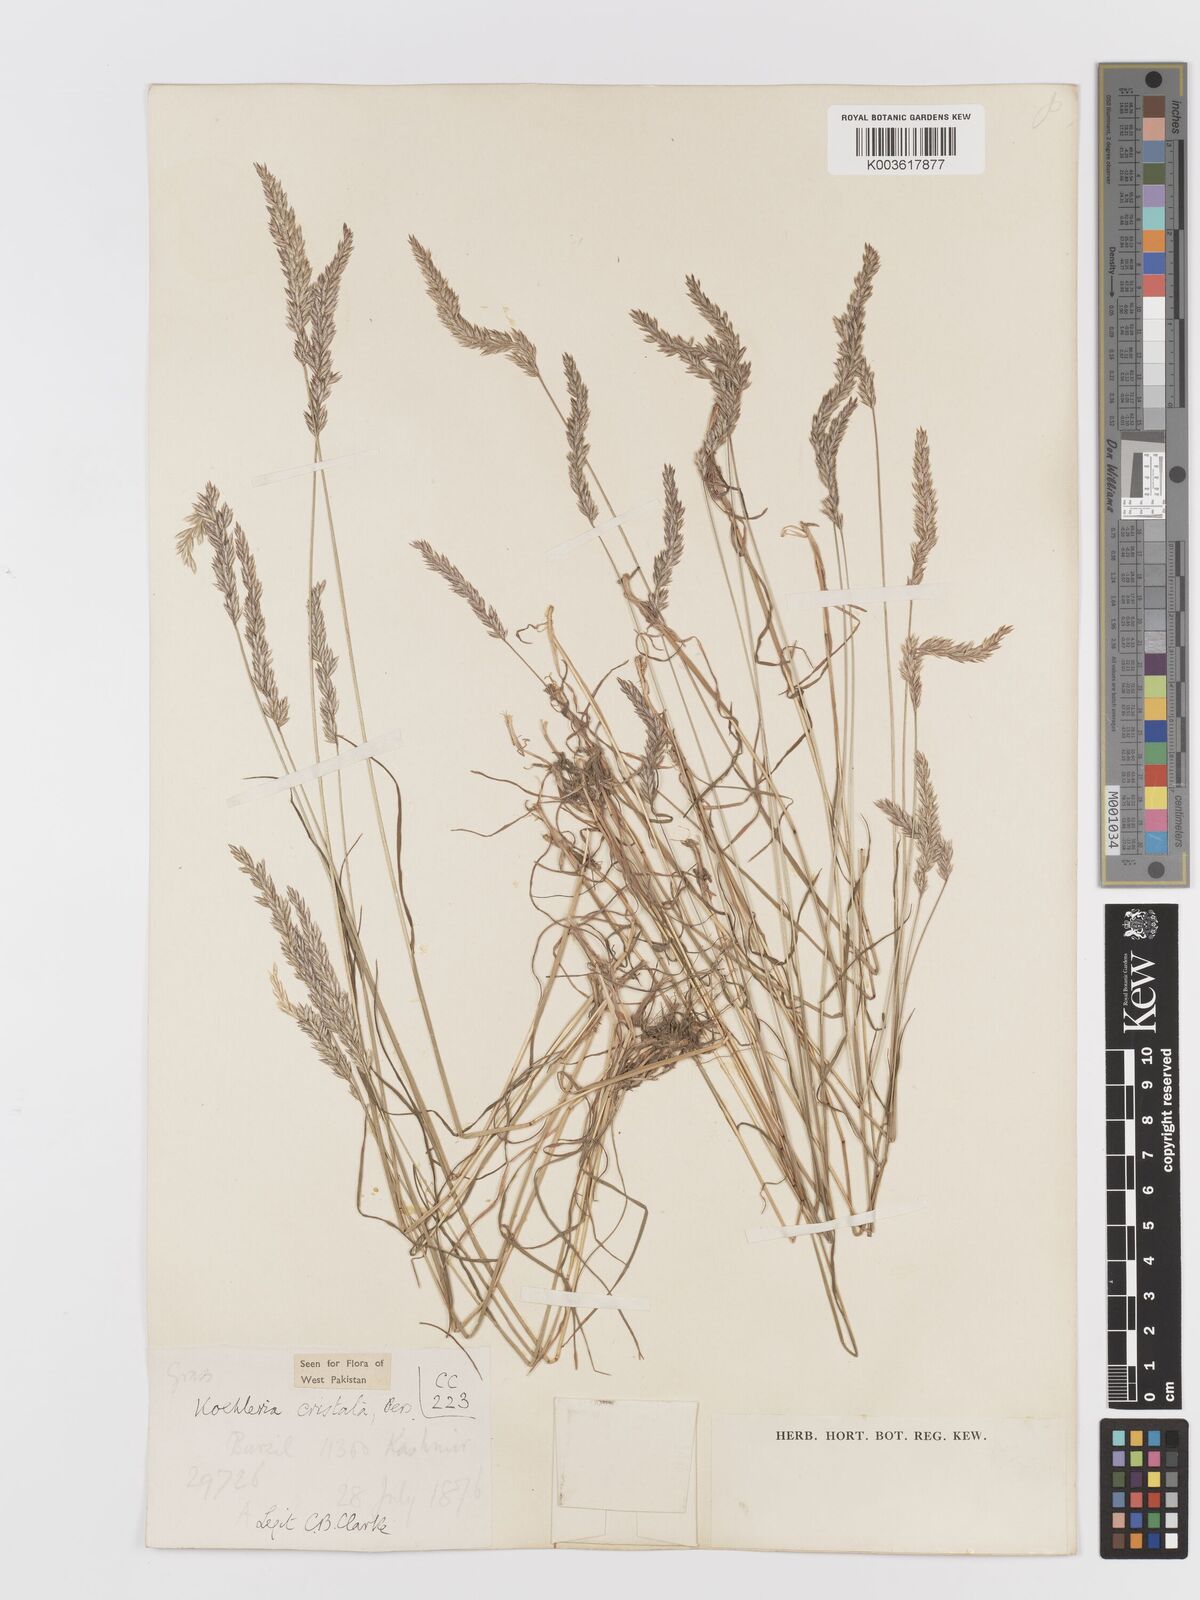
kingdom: Plantae
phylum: Tracheophyta
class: Liliopsida
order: Poales
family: Poaceae
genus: Koeleria
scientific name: Koeleria
